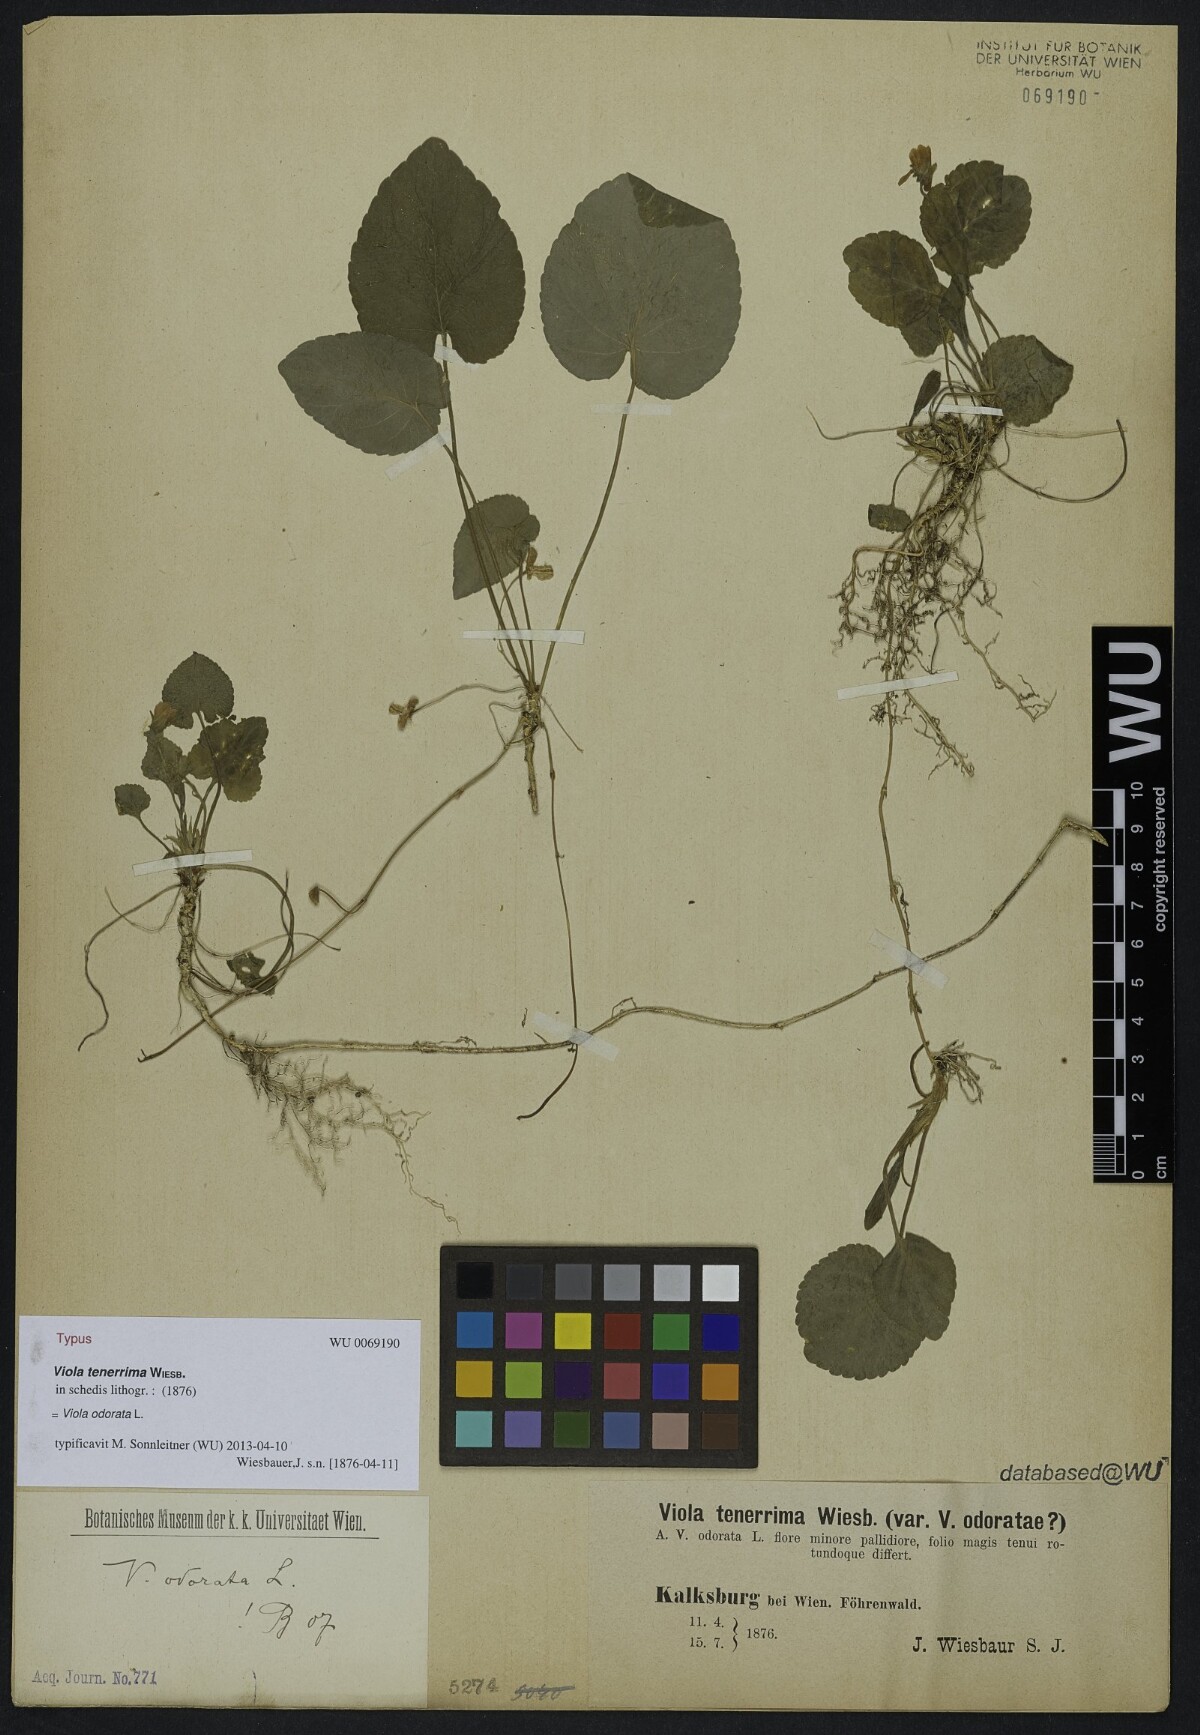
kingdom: Plantae
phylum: Tracheophyta
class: Magnoliopsida
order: Malpighiales
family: Violaceae
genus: Viola
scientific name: Viola hirta
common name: Hairy violet
